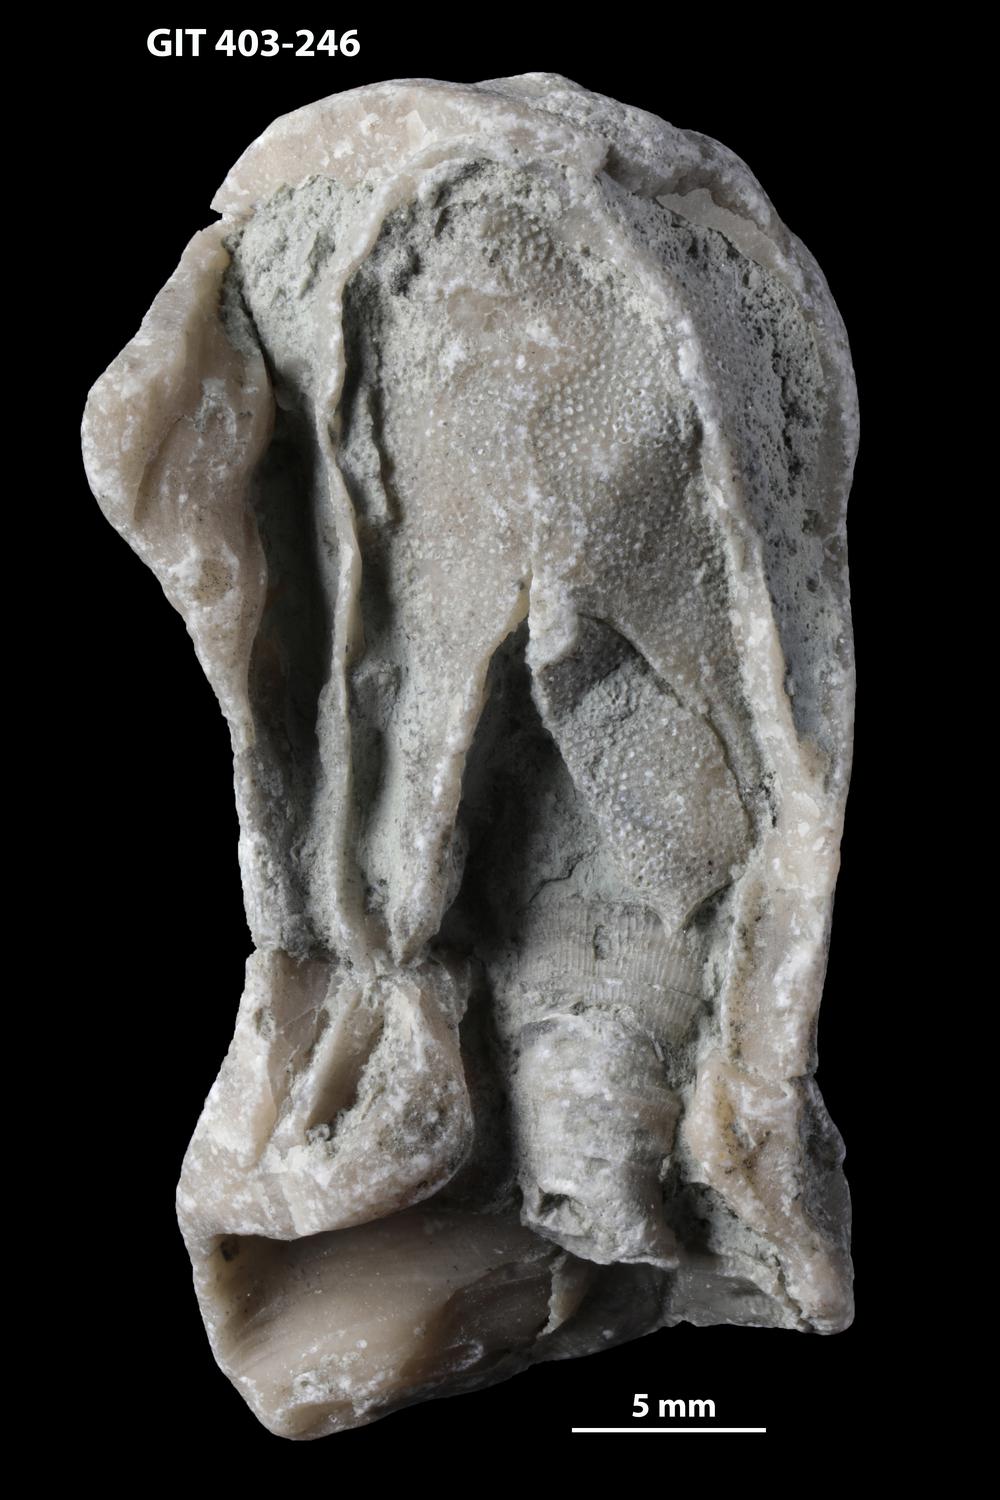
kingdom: Animalia
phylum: Bryozoa
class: Stenolaemata
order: Cystoporida
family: Fistuliporidae
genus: Fistulipora
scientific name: Fistulipora przhidolensis
